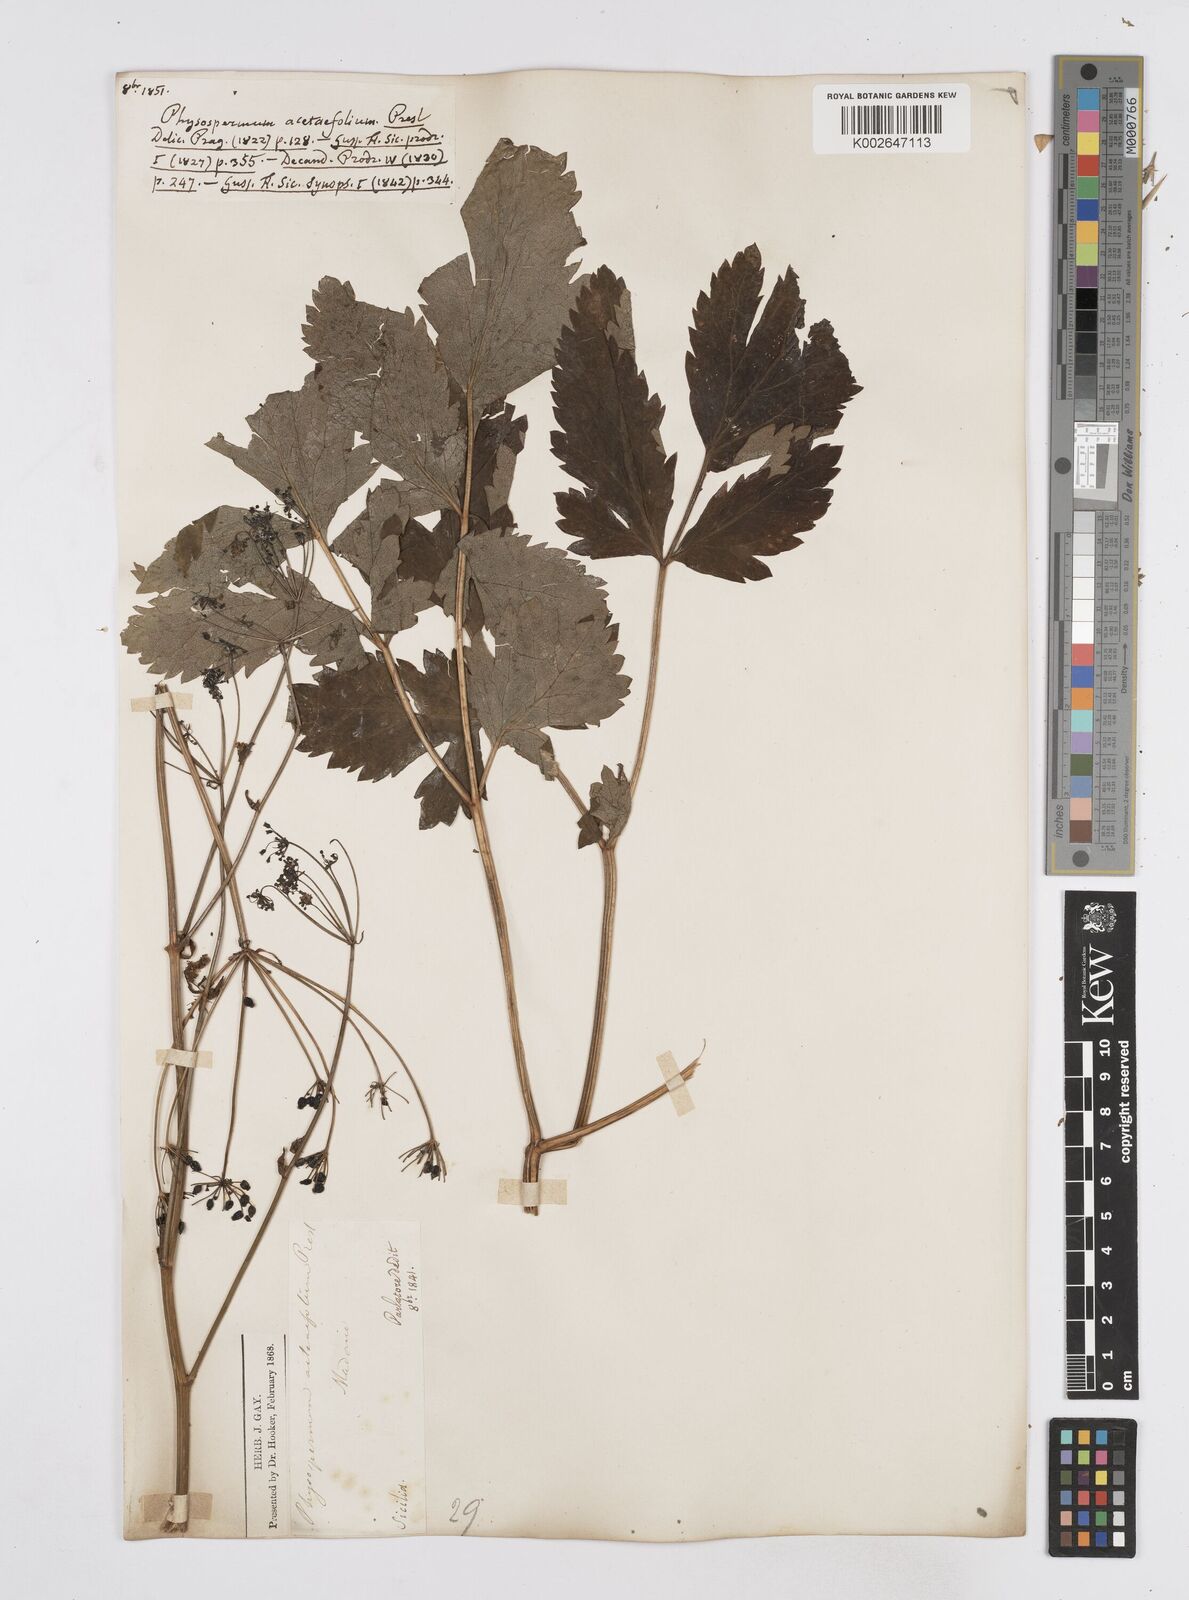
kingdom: Plantae
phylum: Tracheophyta
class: Magnoliopsida
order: Apiales
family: Apiaceae
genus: Physospermum
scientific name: Physospermum verticillatum
